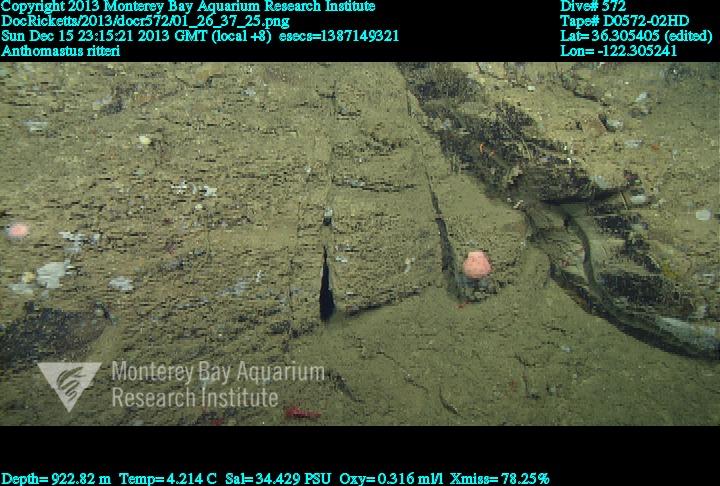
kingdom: Animalia
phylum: Cnidaria
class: Anthozoa
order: Scleralcyonacea
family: Coralliidae
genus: Heteropolypus
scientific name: Heteropolypus ritteri
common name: Ritter's soft coral
